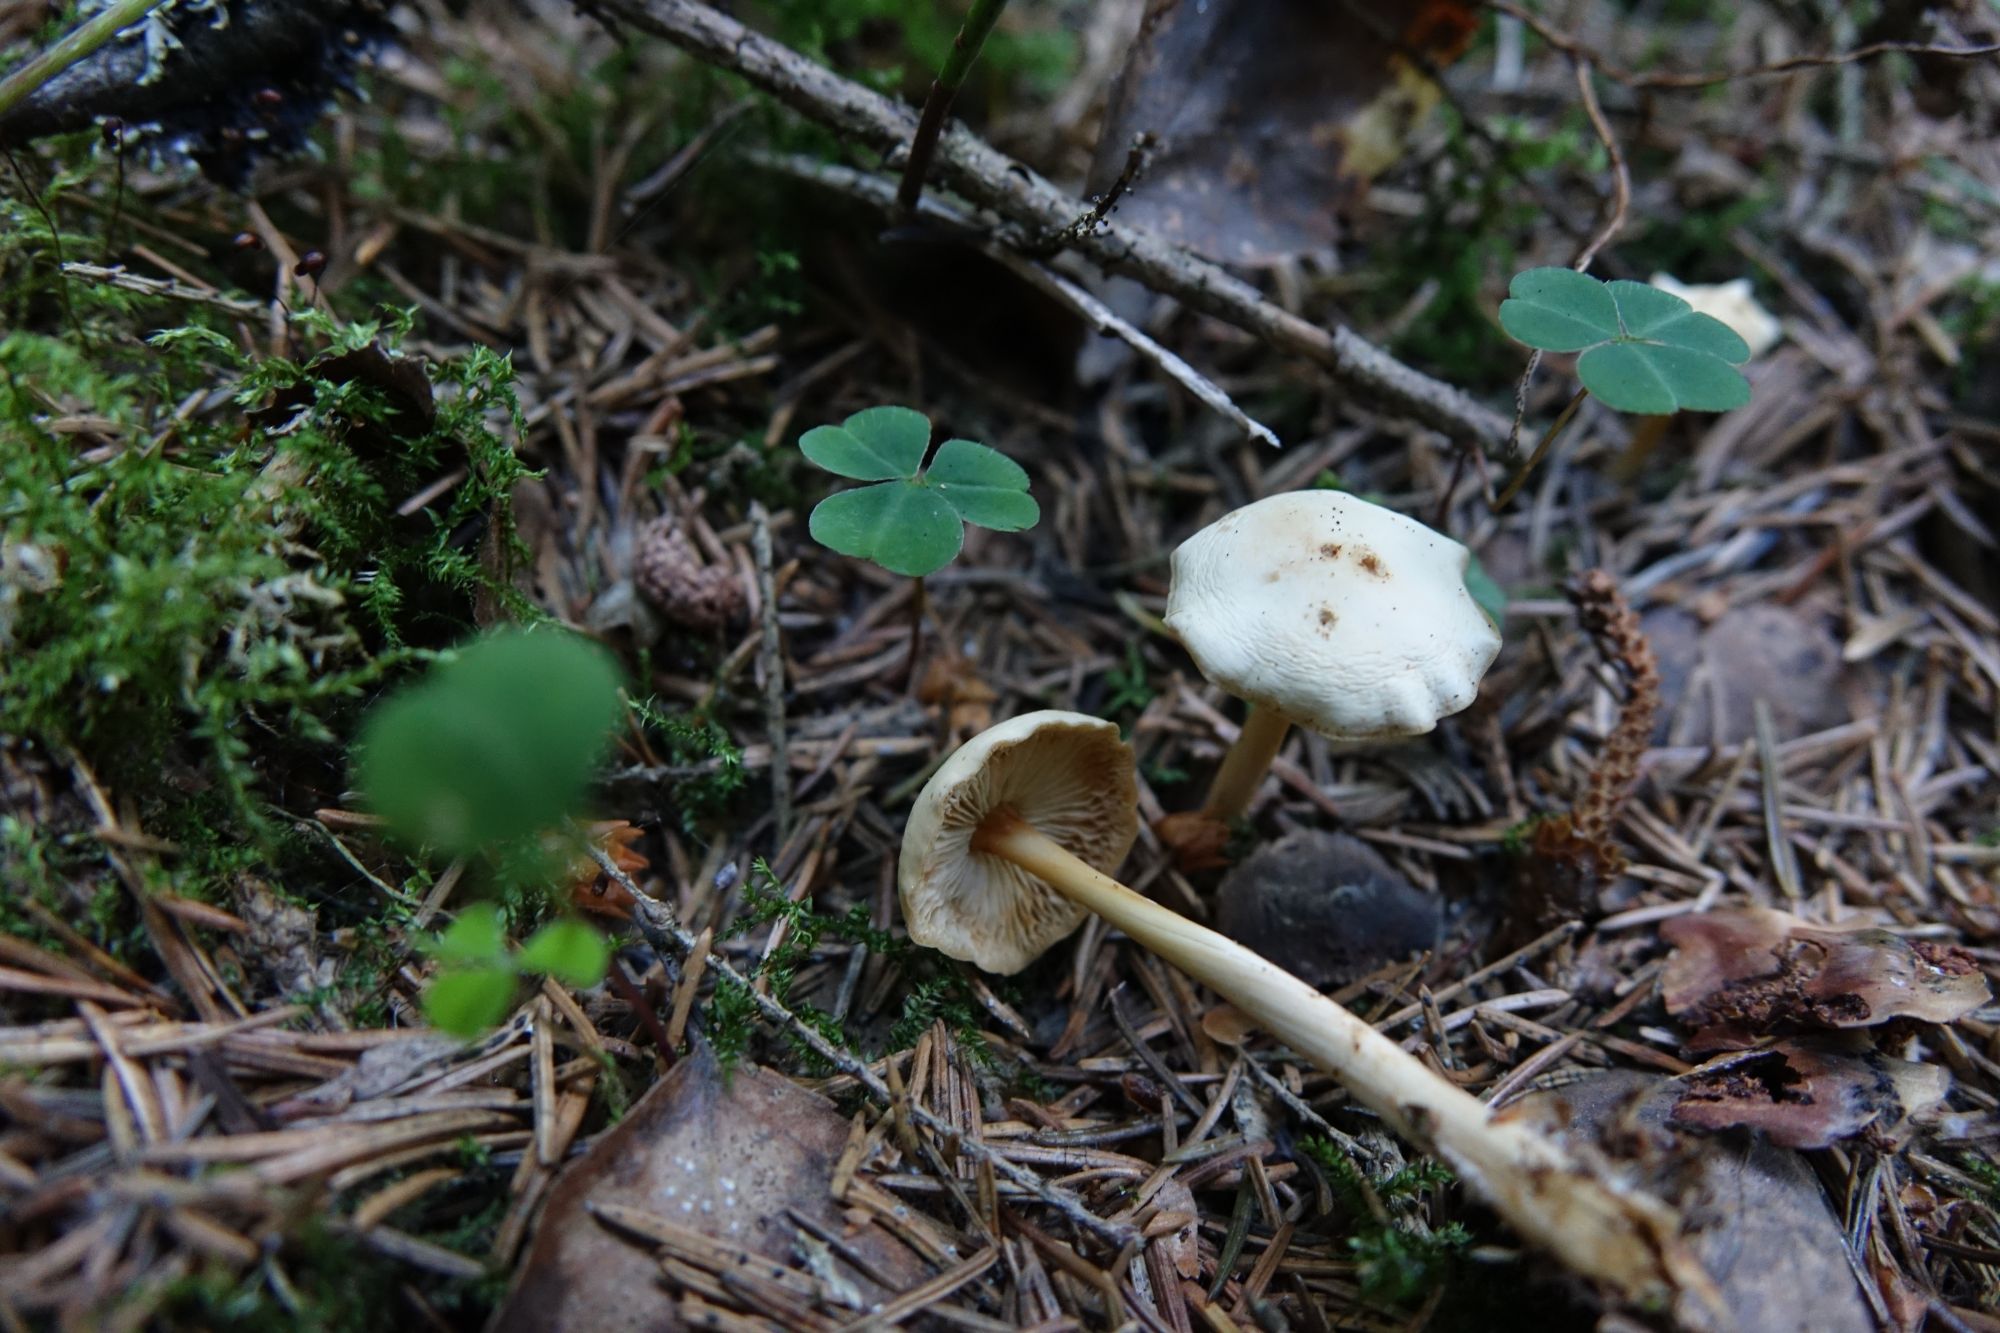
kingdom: Fungi
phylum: Basidiomycota
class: Agaricomycetes
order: Agaricales
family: Omphalotaceae
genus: Gymnopus
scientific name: Gymnopus dryophilus
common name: Penny top
